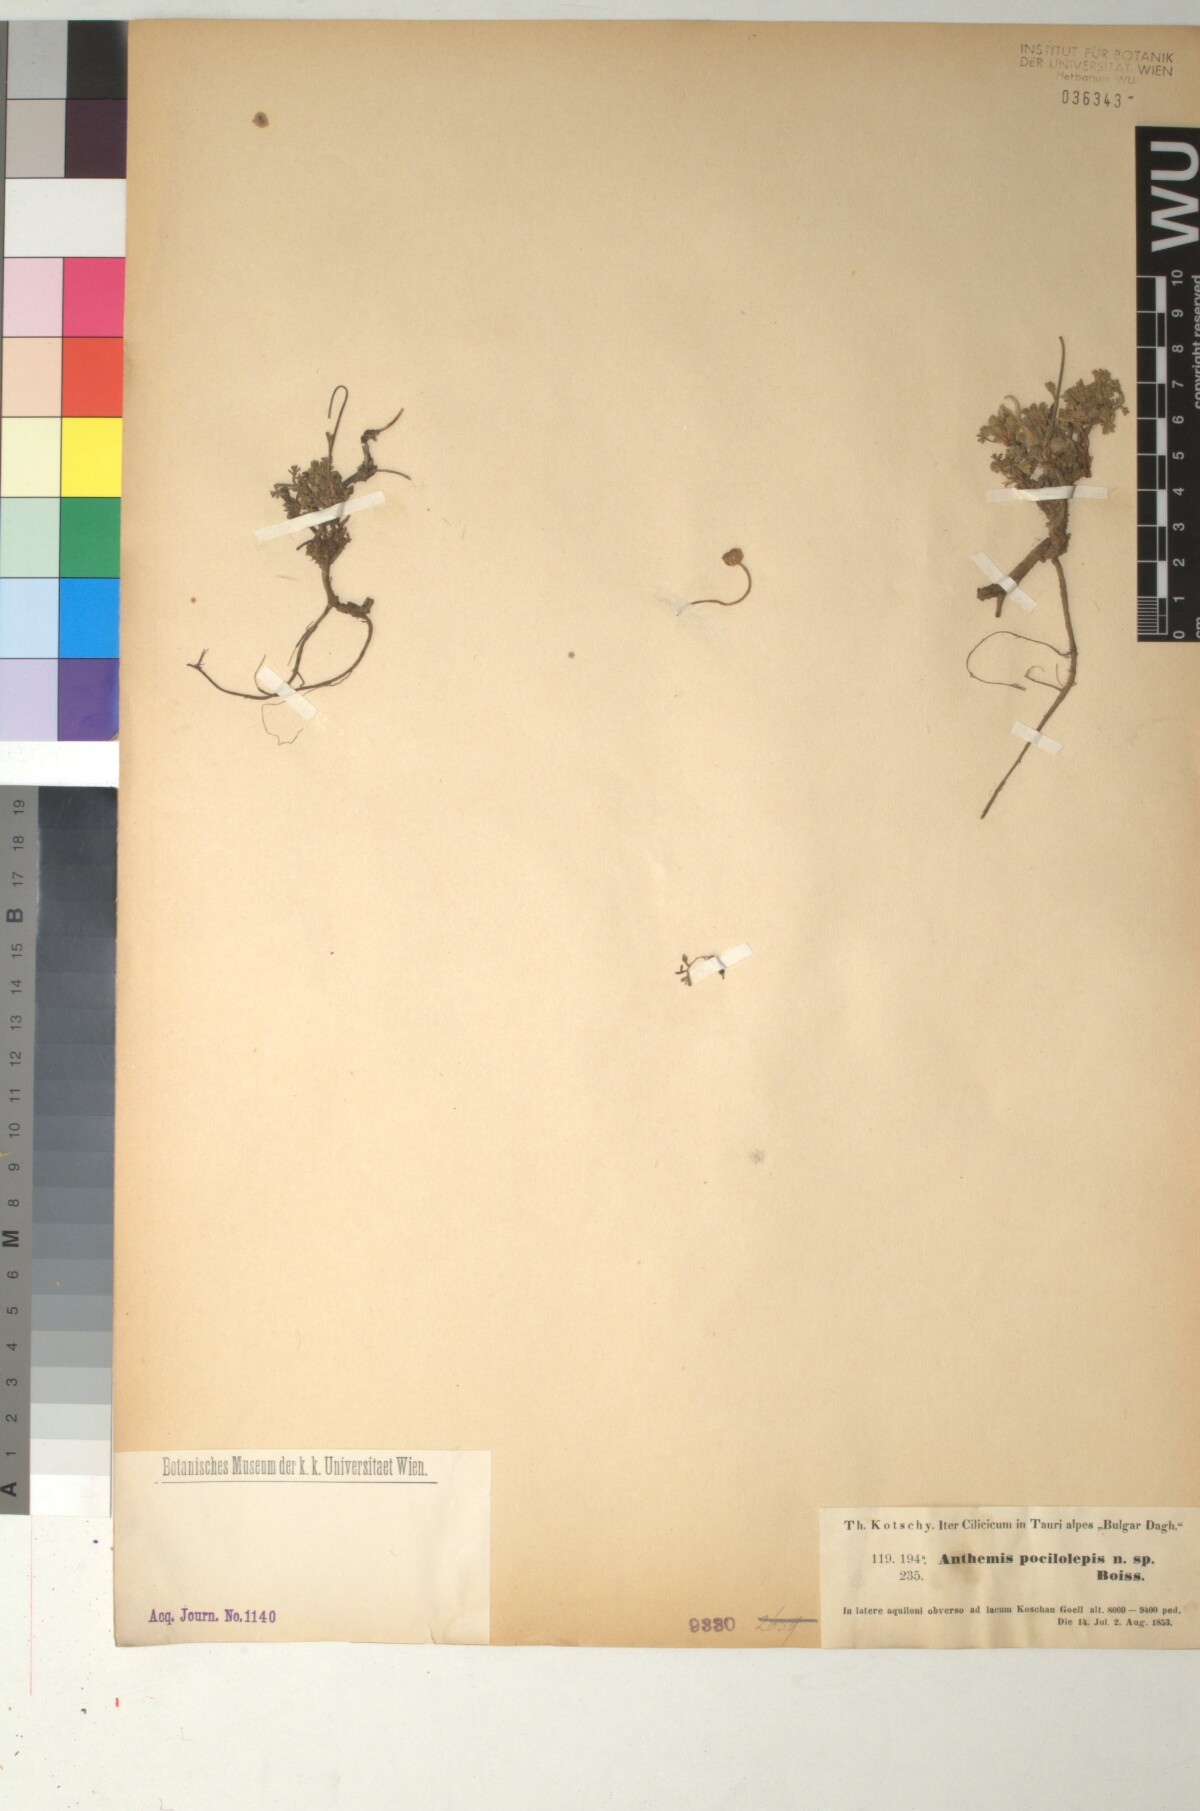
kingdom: Plantae
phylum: Tracheophyta
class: Magnoliopsida
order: Asterales
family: Asteraceae
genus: Anthemis
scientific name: Anthemis kotschyana
